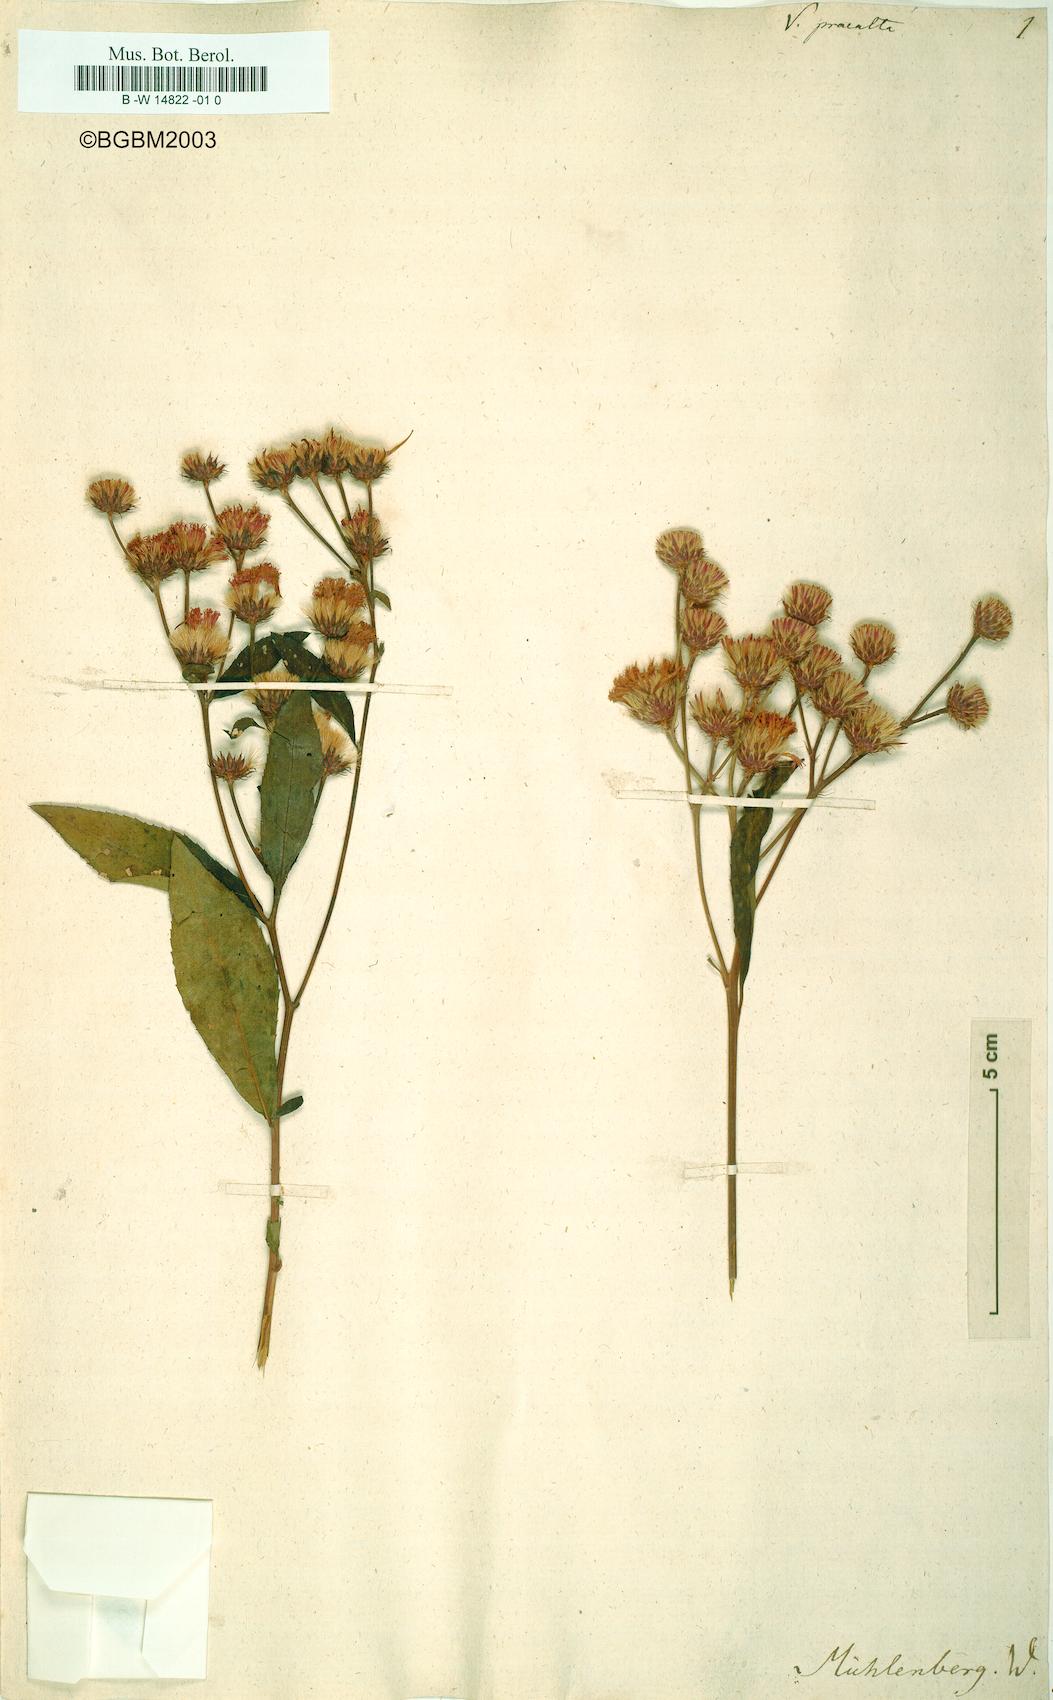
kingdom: Plantae
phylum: Tracheophyta
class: Magnoliopsida
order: Asterales
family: Asteraceae
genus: Vernonia
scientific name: Vernonia praealta
